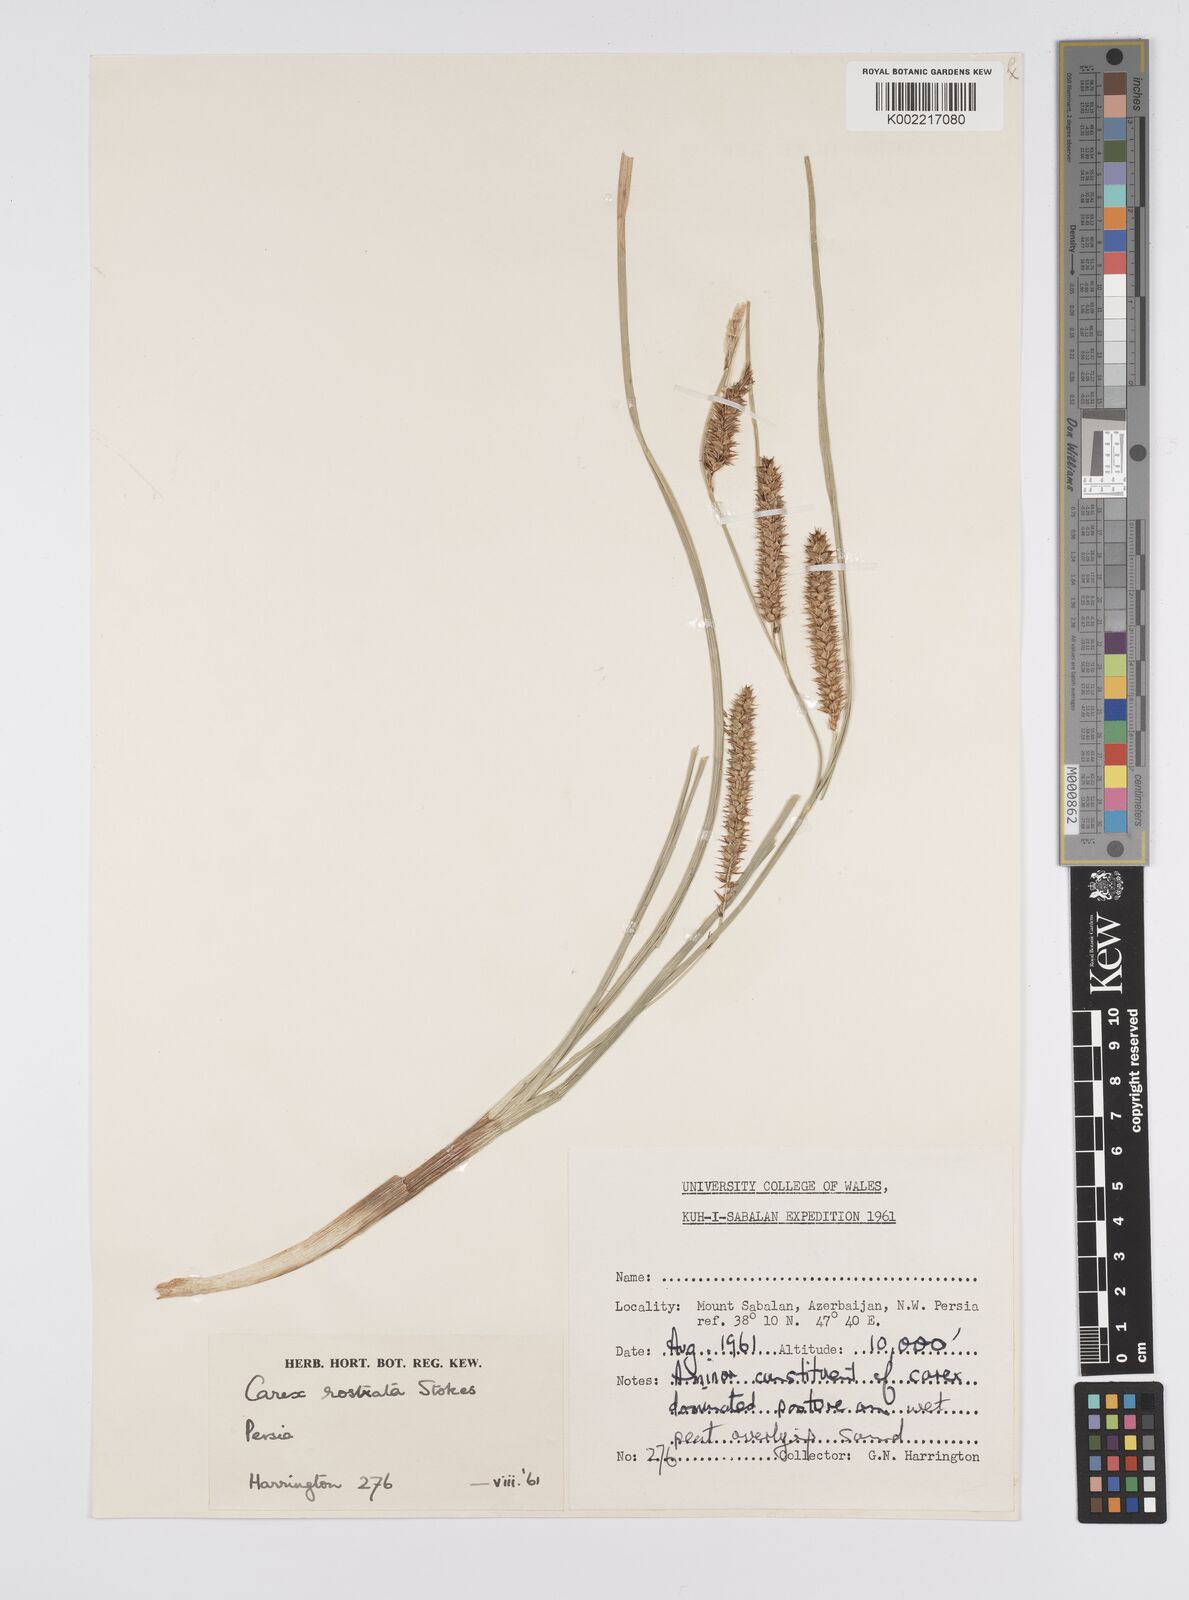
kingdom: Plantae
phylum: Tracheophyta
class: Liliopsida
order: Poales
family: Cyperaceae
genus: Carex
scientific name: Carex rostrata
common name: Bottle sedge
